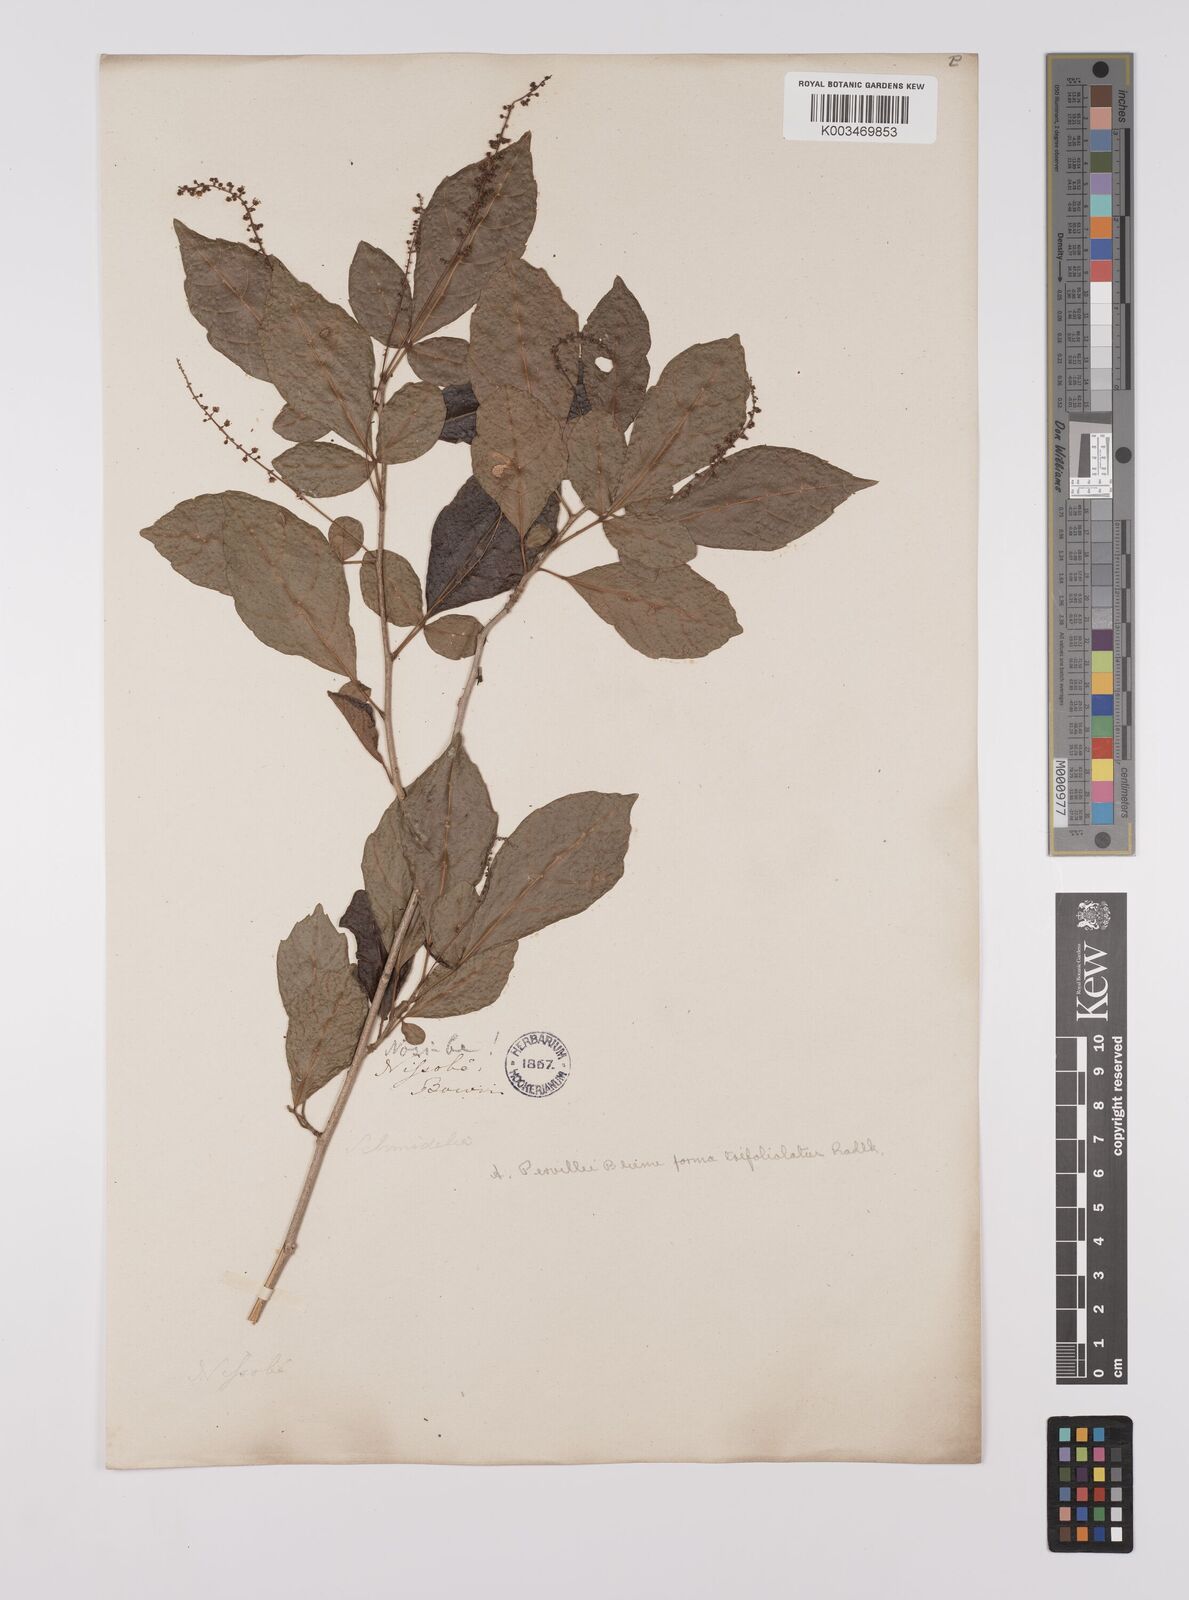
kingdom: Plantae
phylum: Tracheophyta
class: Magnoliopsida
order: Sapindales
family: Sapindaceae
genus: Allophylus
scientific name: Allophylus
